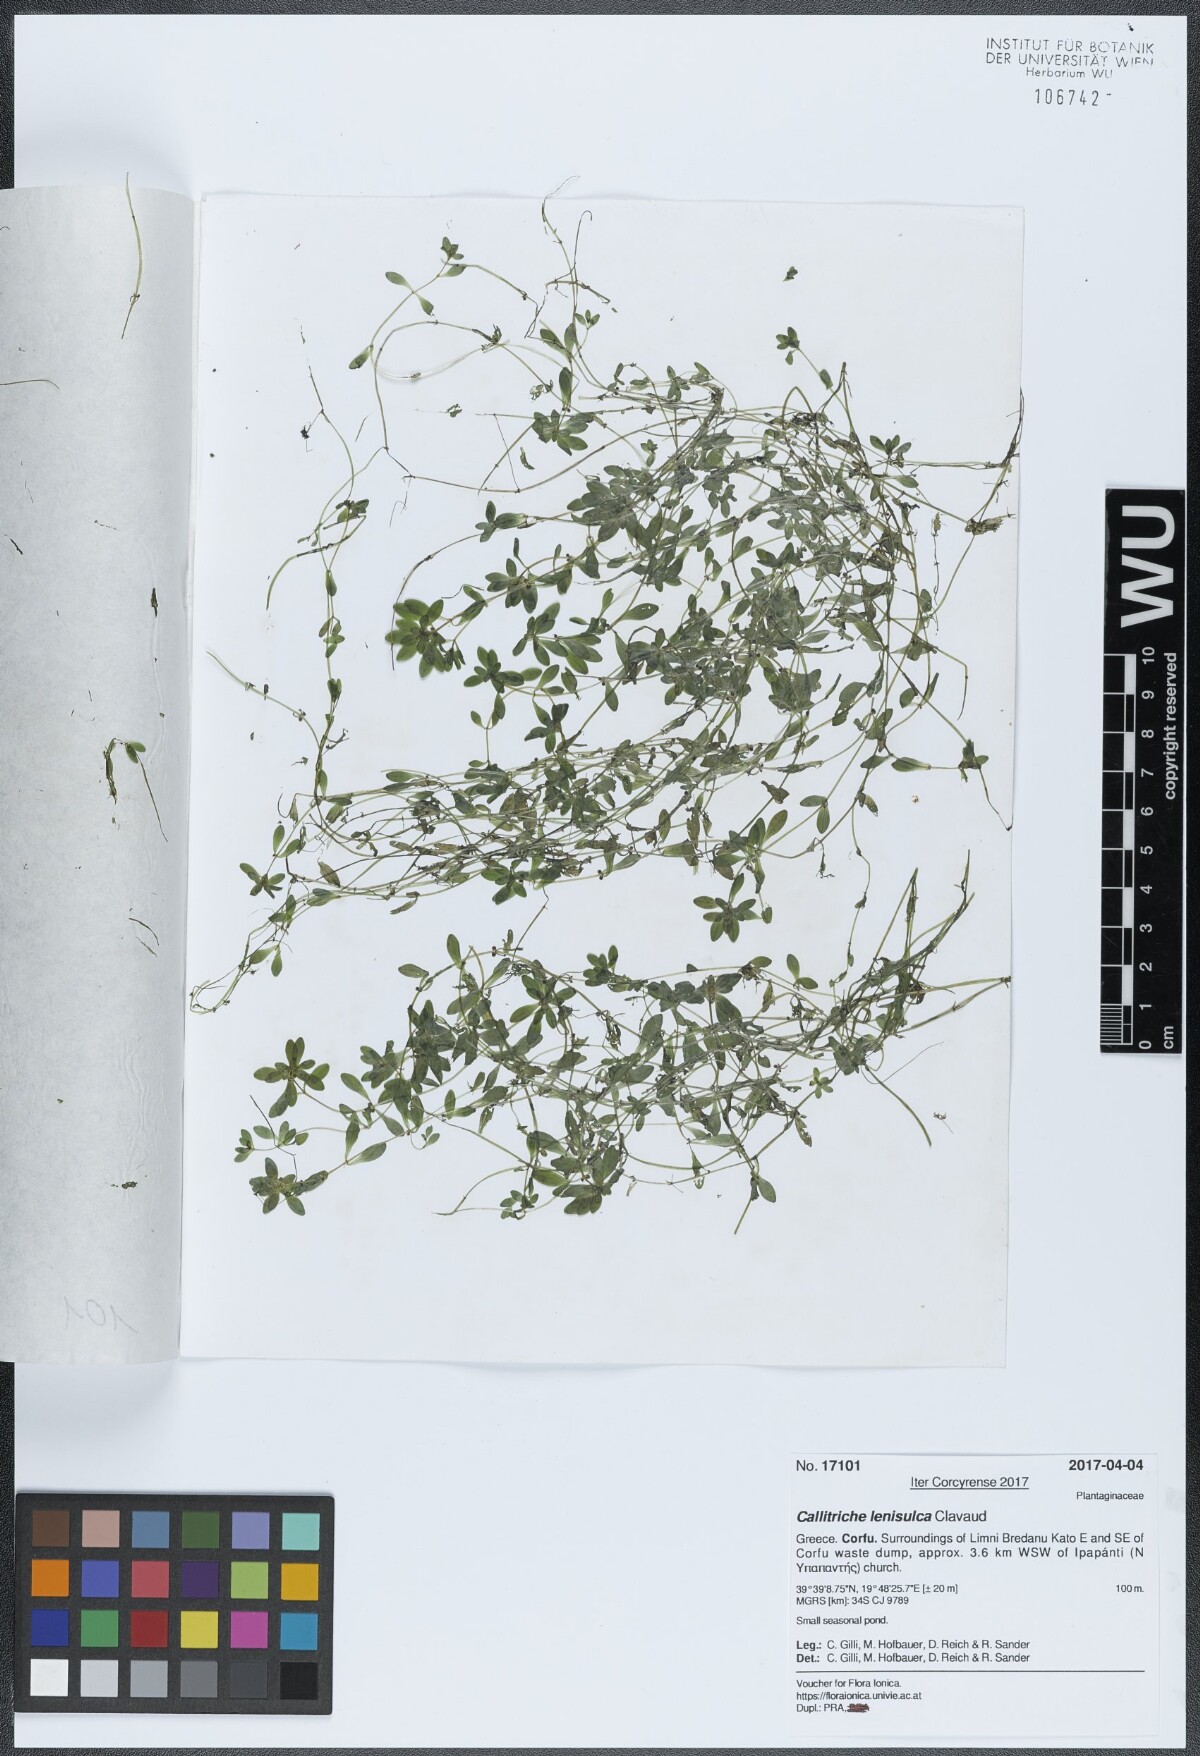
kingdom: Plantae
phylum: Tracheophyta
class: Magnoliopsida
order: Lamiales
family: Plantaginaceae
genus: Callitriche
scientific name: Callitriche lenisulca
